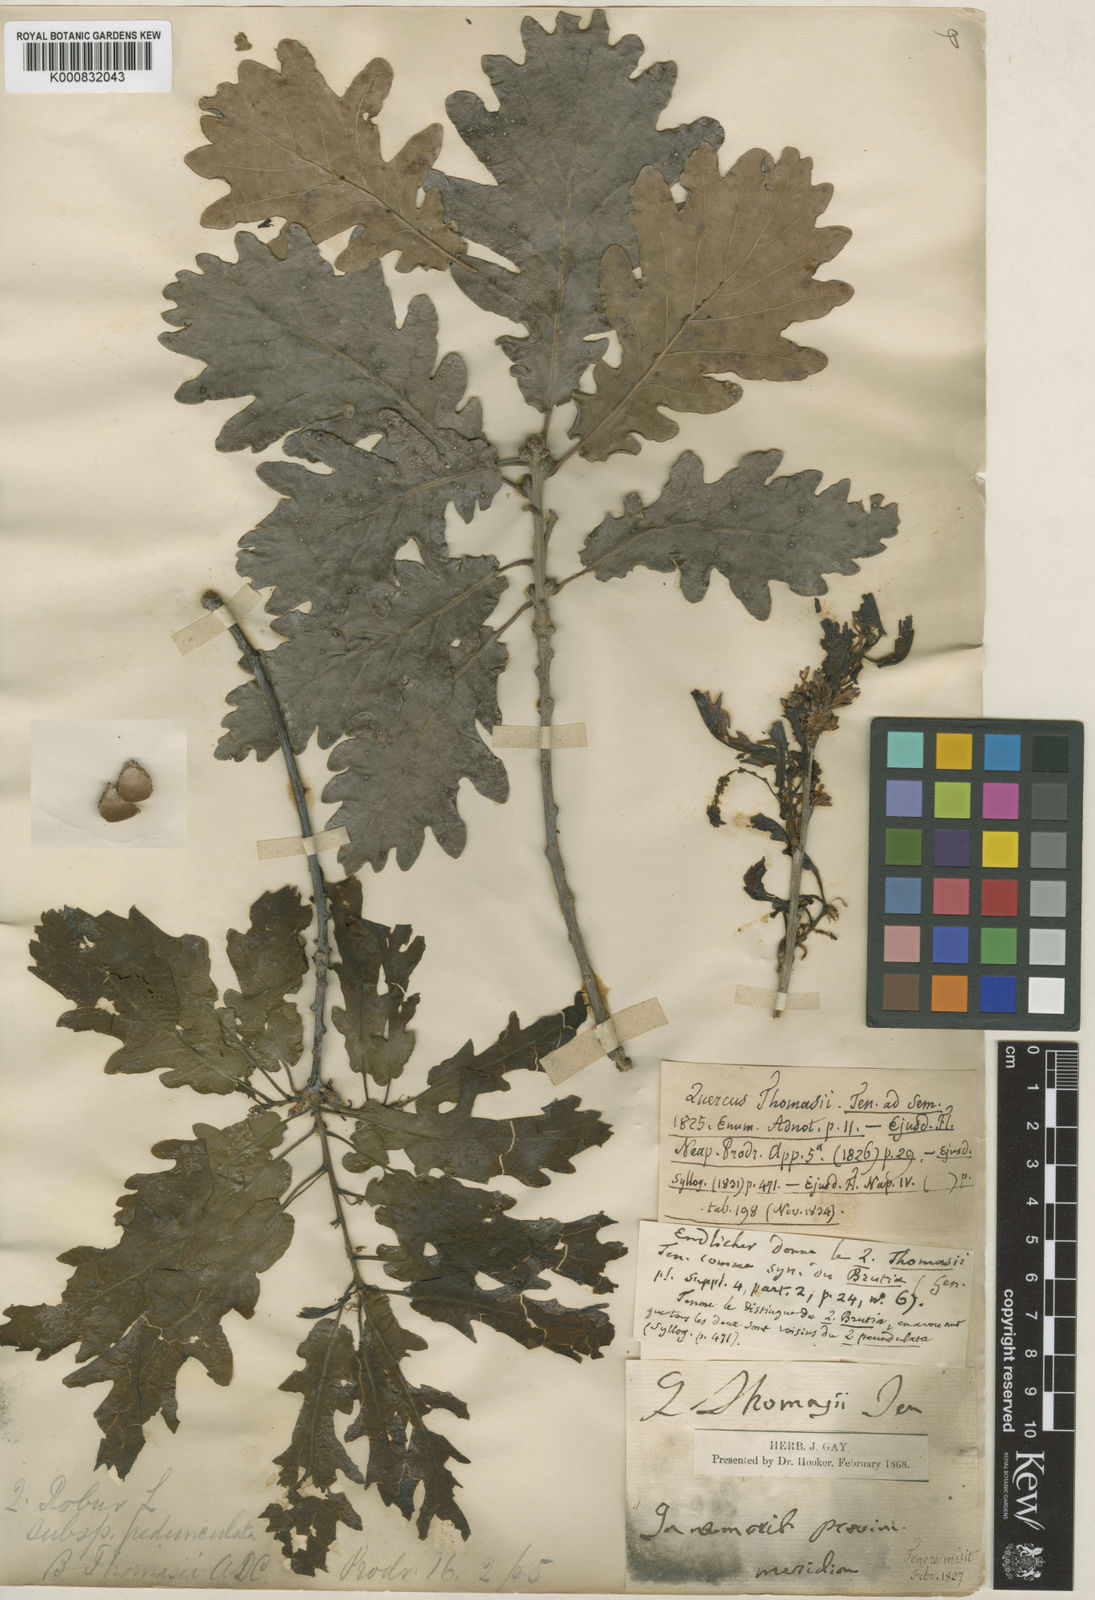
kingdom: Plantae
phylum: Tracheophyta
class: Magnoliopsida
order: Fagales
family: Fagaceae
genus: Quercus
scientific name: Quercus robur
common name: Pedunculate oak
